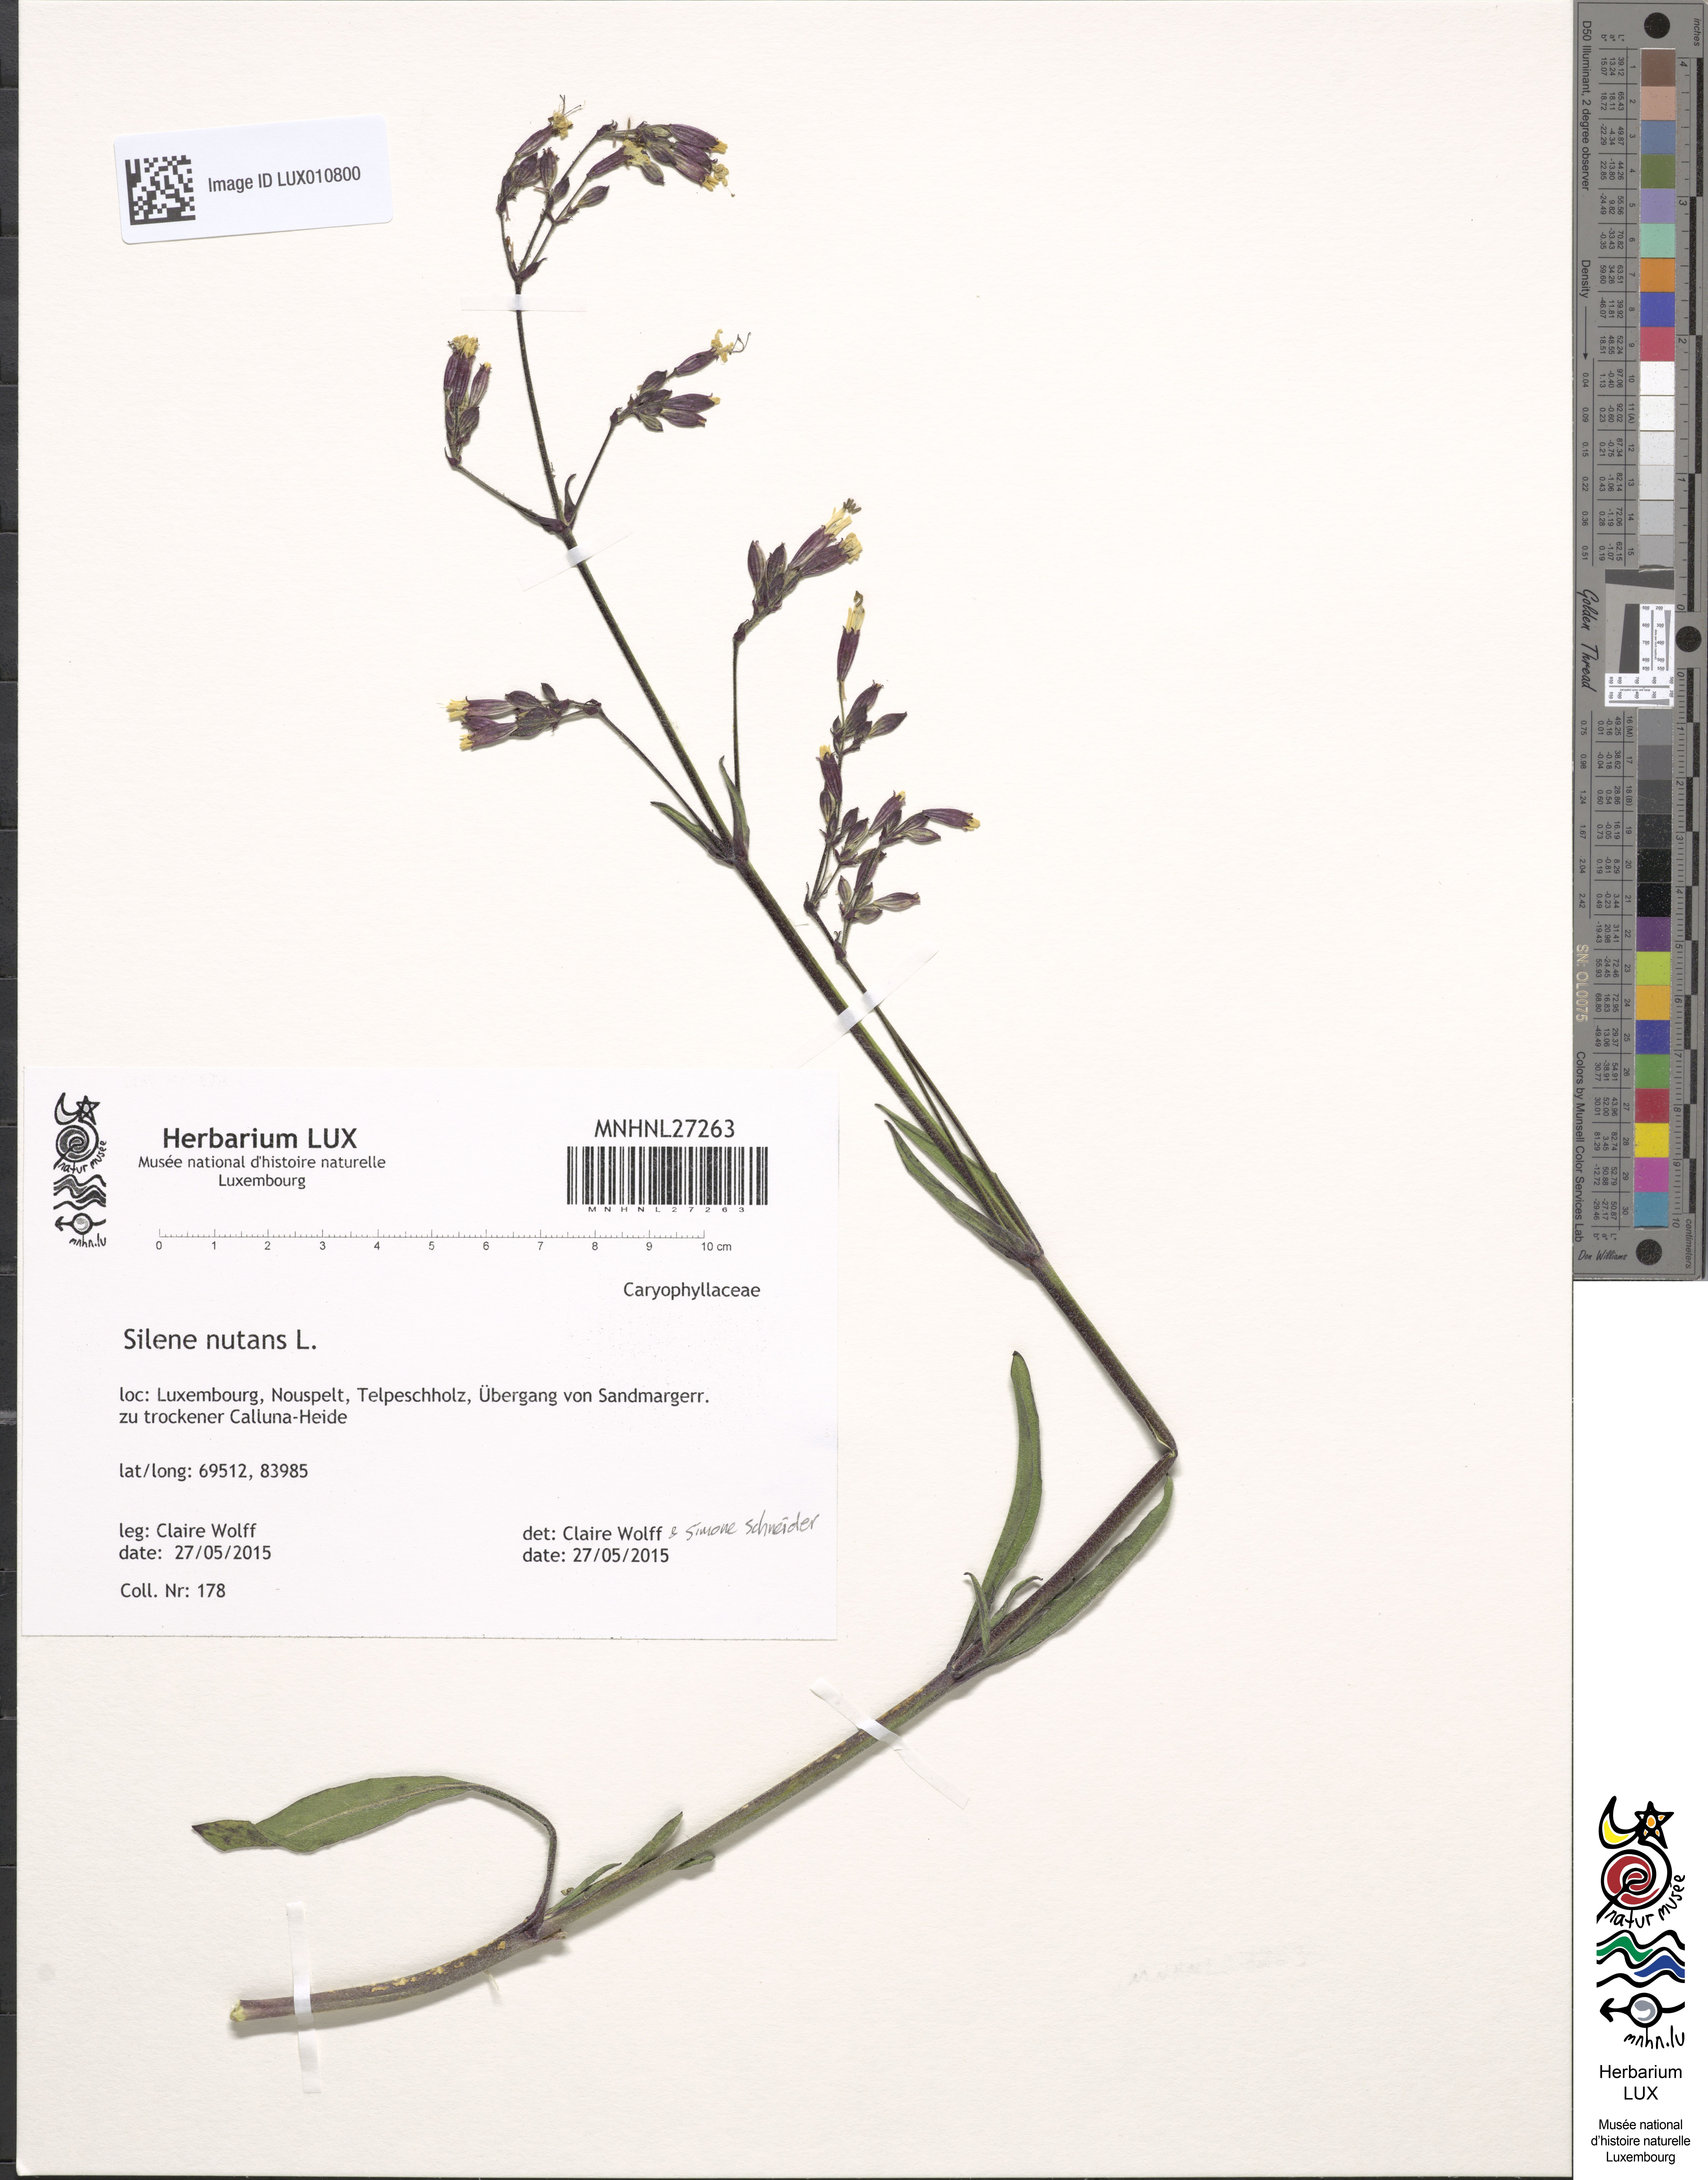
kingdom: Plantae
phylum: Tracheophyta
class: Magnoliopsida
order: Caryophyllales
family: Caryophyllaceae
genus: Silene
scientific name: Silene nutans
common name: Nottingham catchfly
